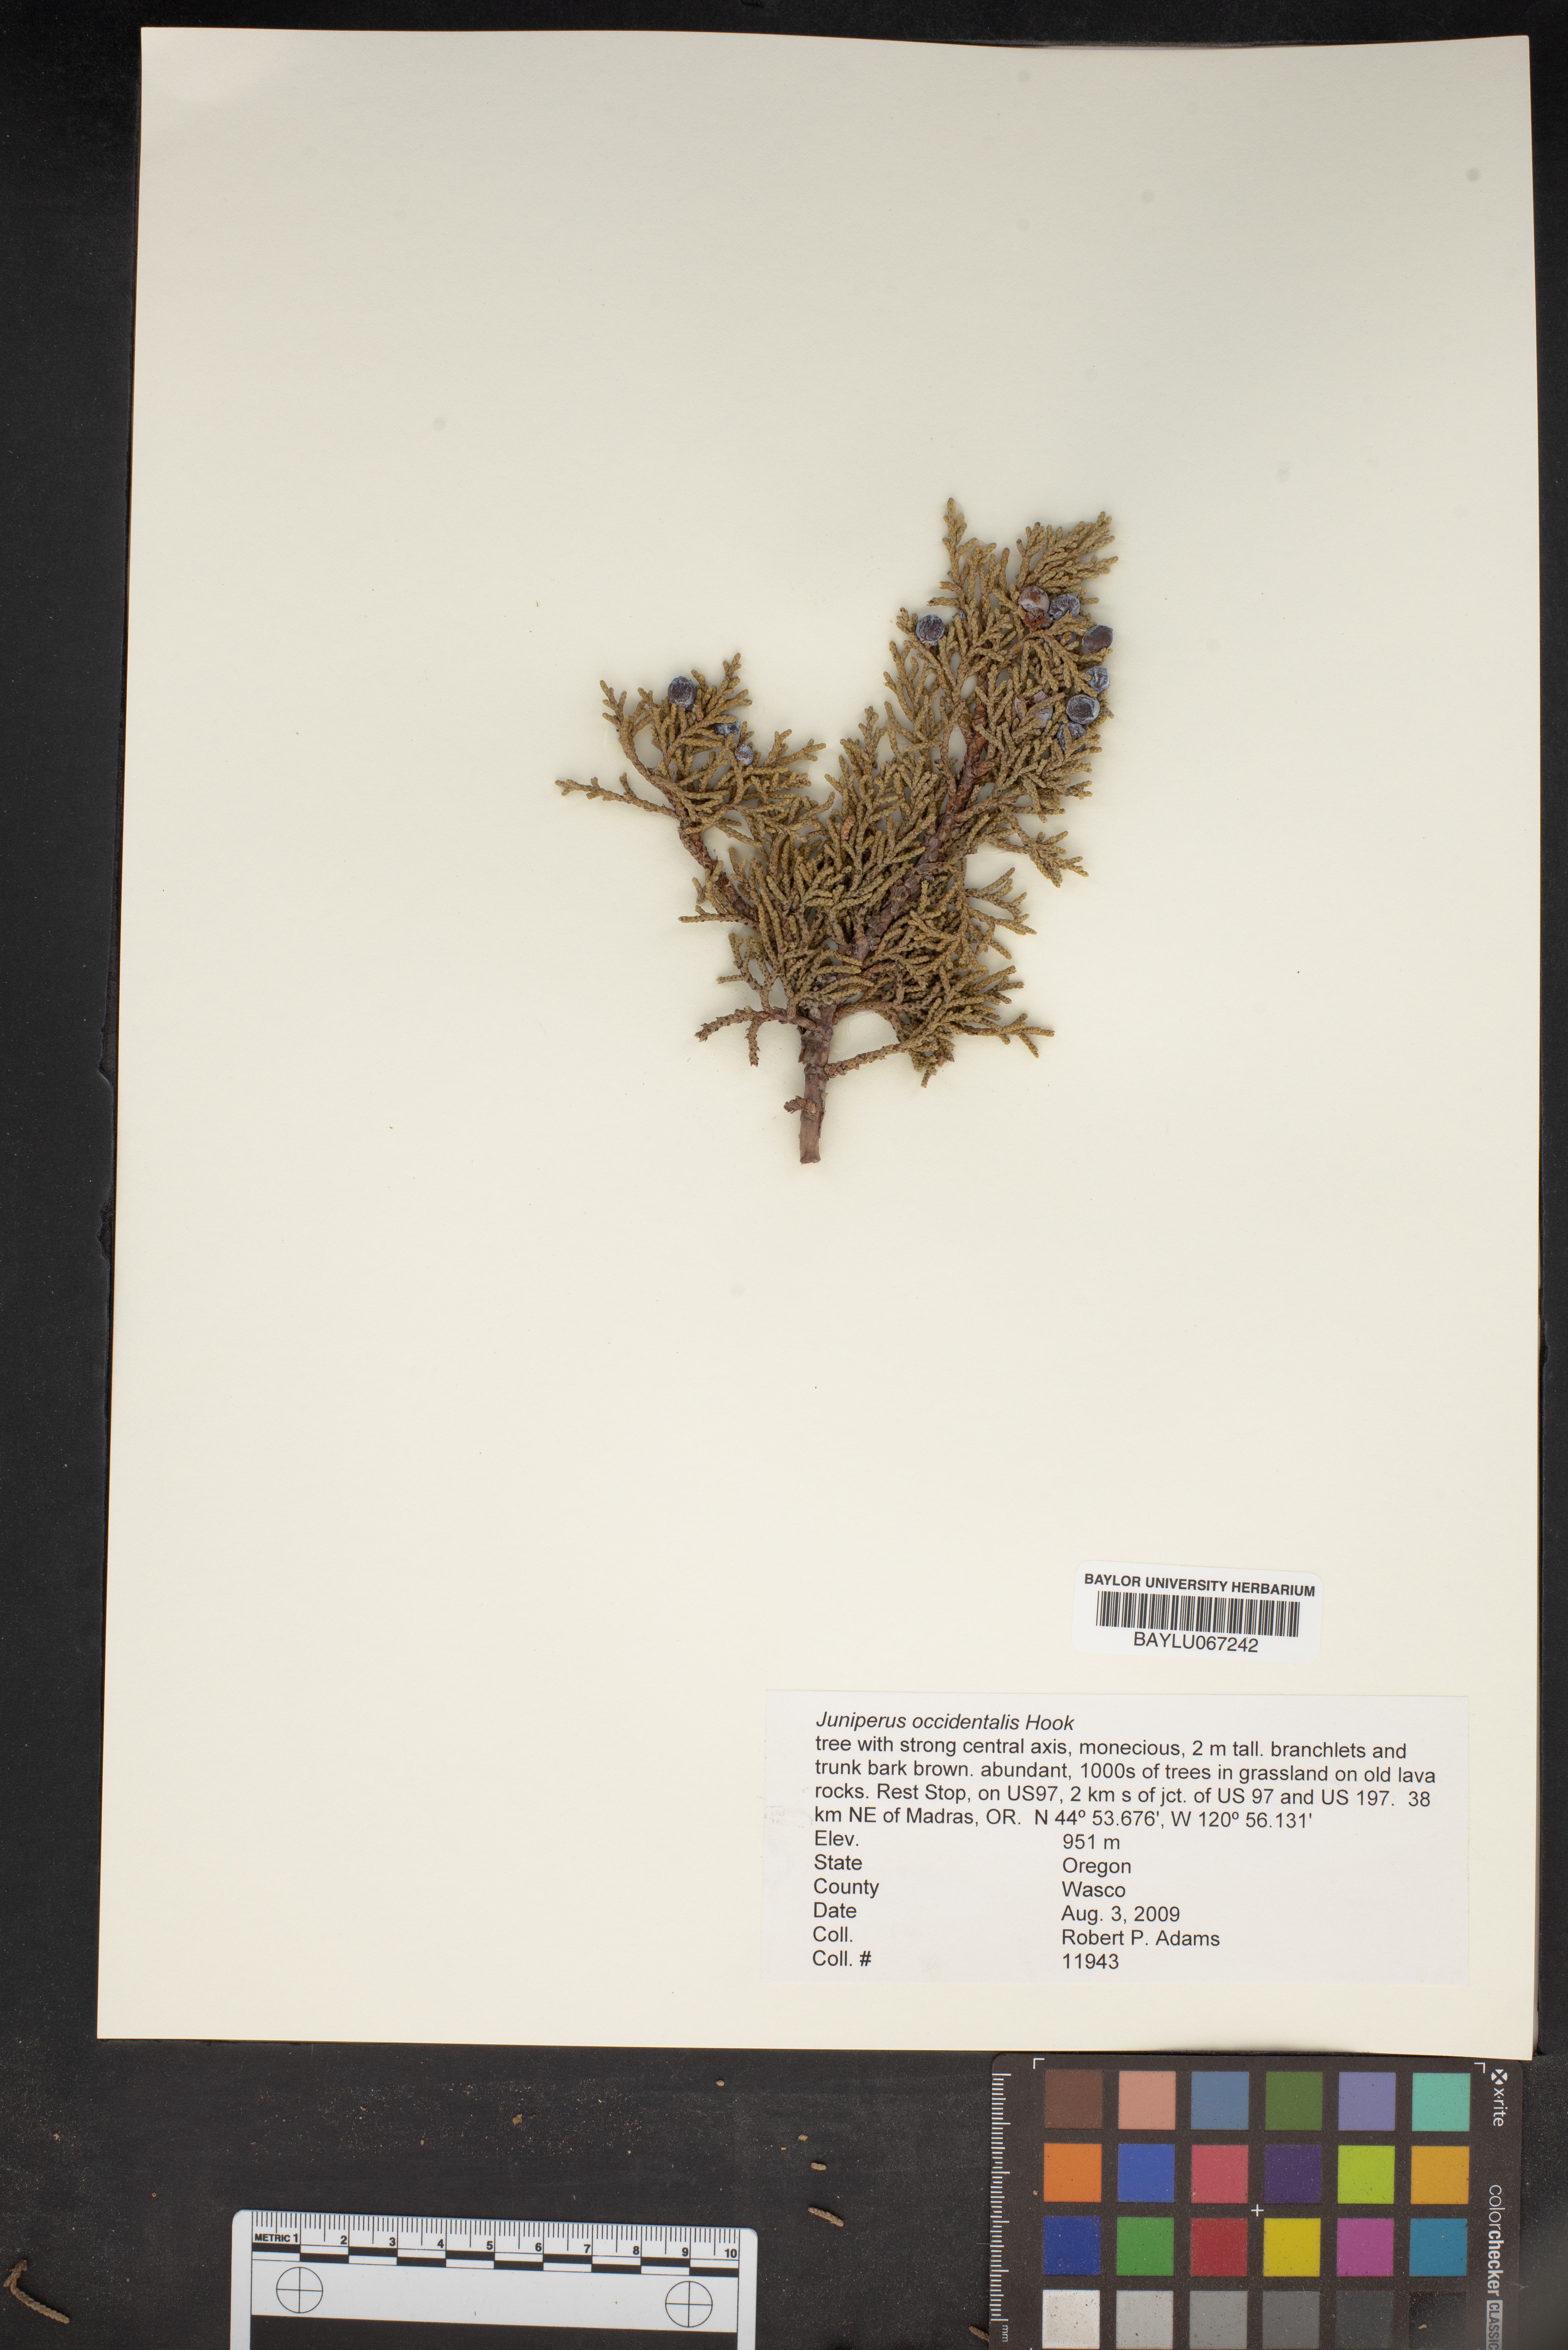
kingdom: Plantae
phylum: Tracheophyta
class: Pinopsida
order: Pinales
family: Cupressaceae
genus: Juniperus
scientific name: Juniperus occidentalis
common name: Western juniper
